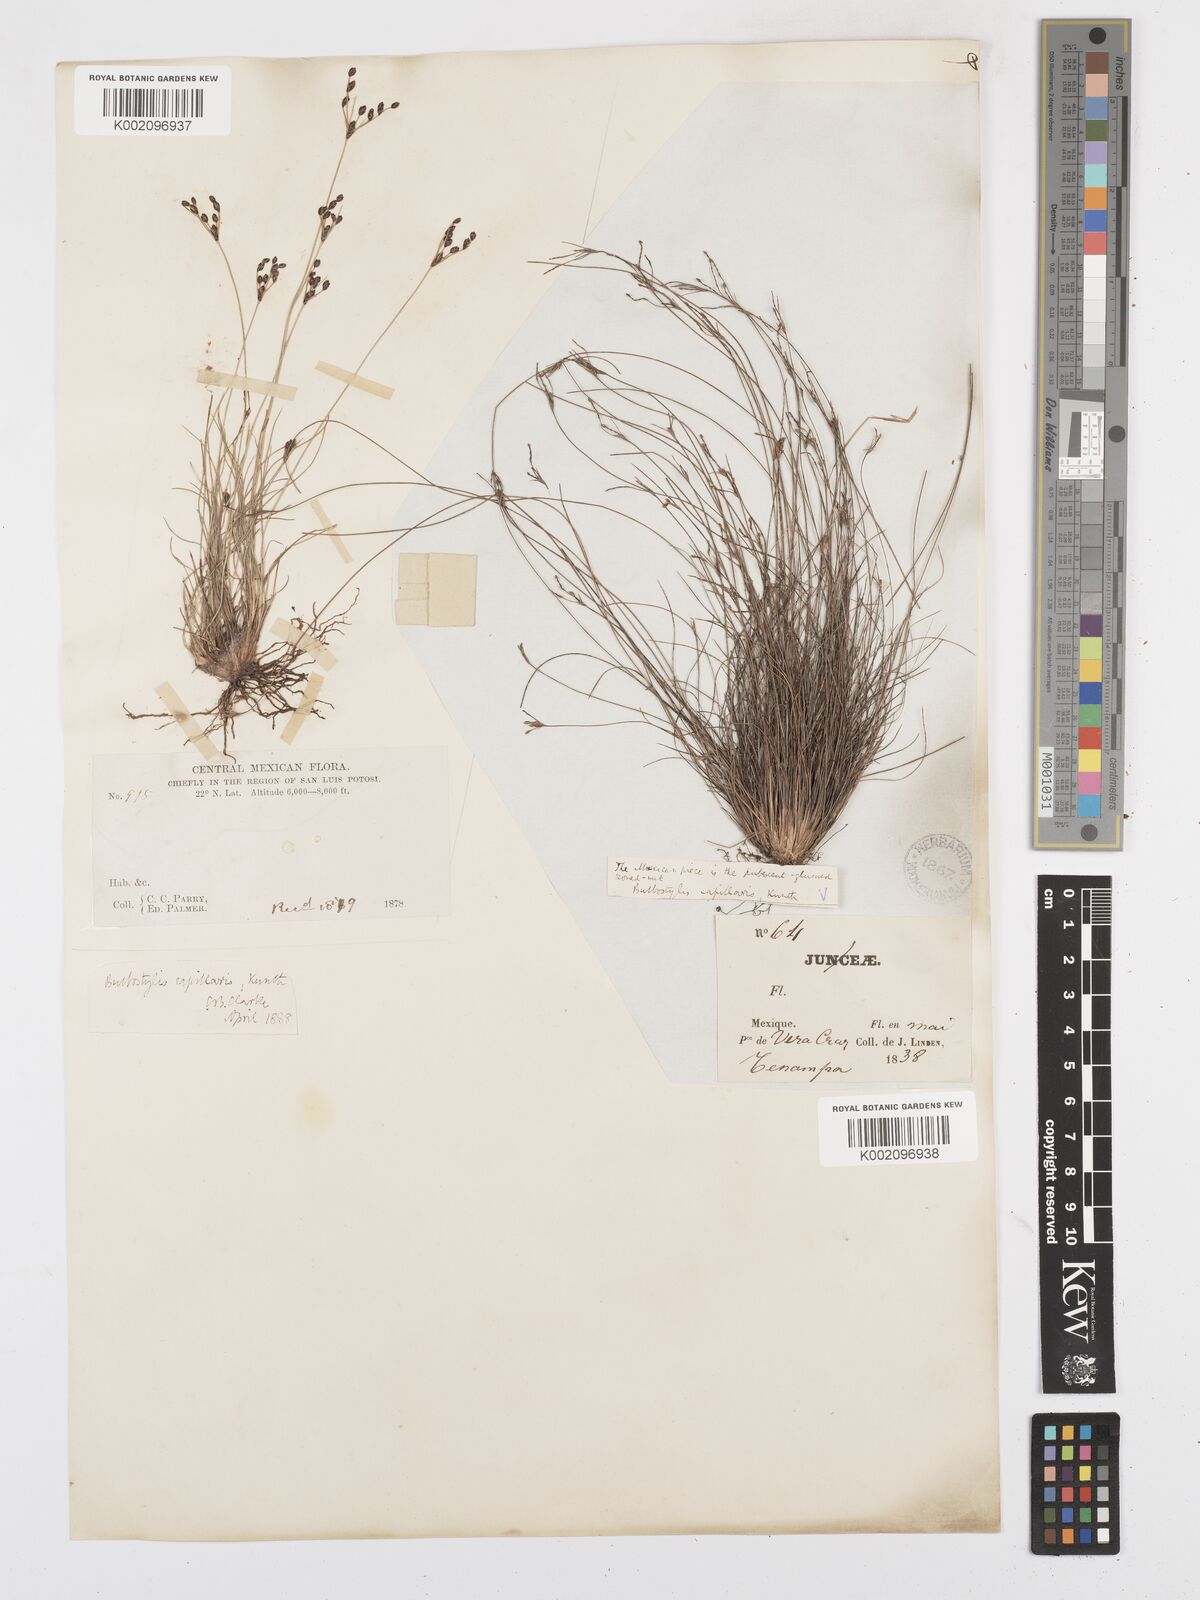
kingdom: Plantae
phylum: Tracheophyta
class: Liliopsida
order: Poales
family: Cyperaceae
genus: Bulbostylis
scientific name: Bulbostylis capillaris
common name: Densetuft hairsedge
